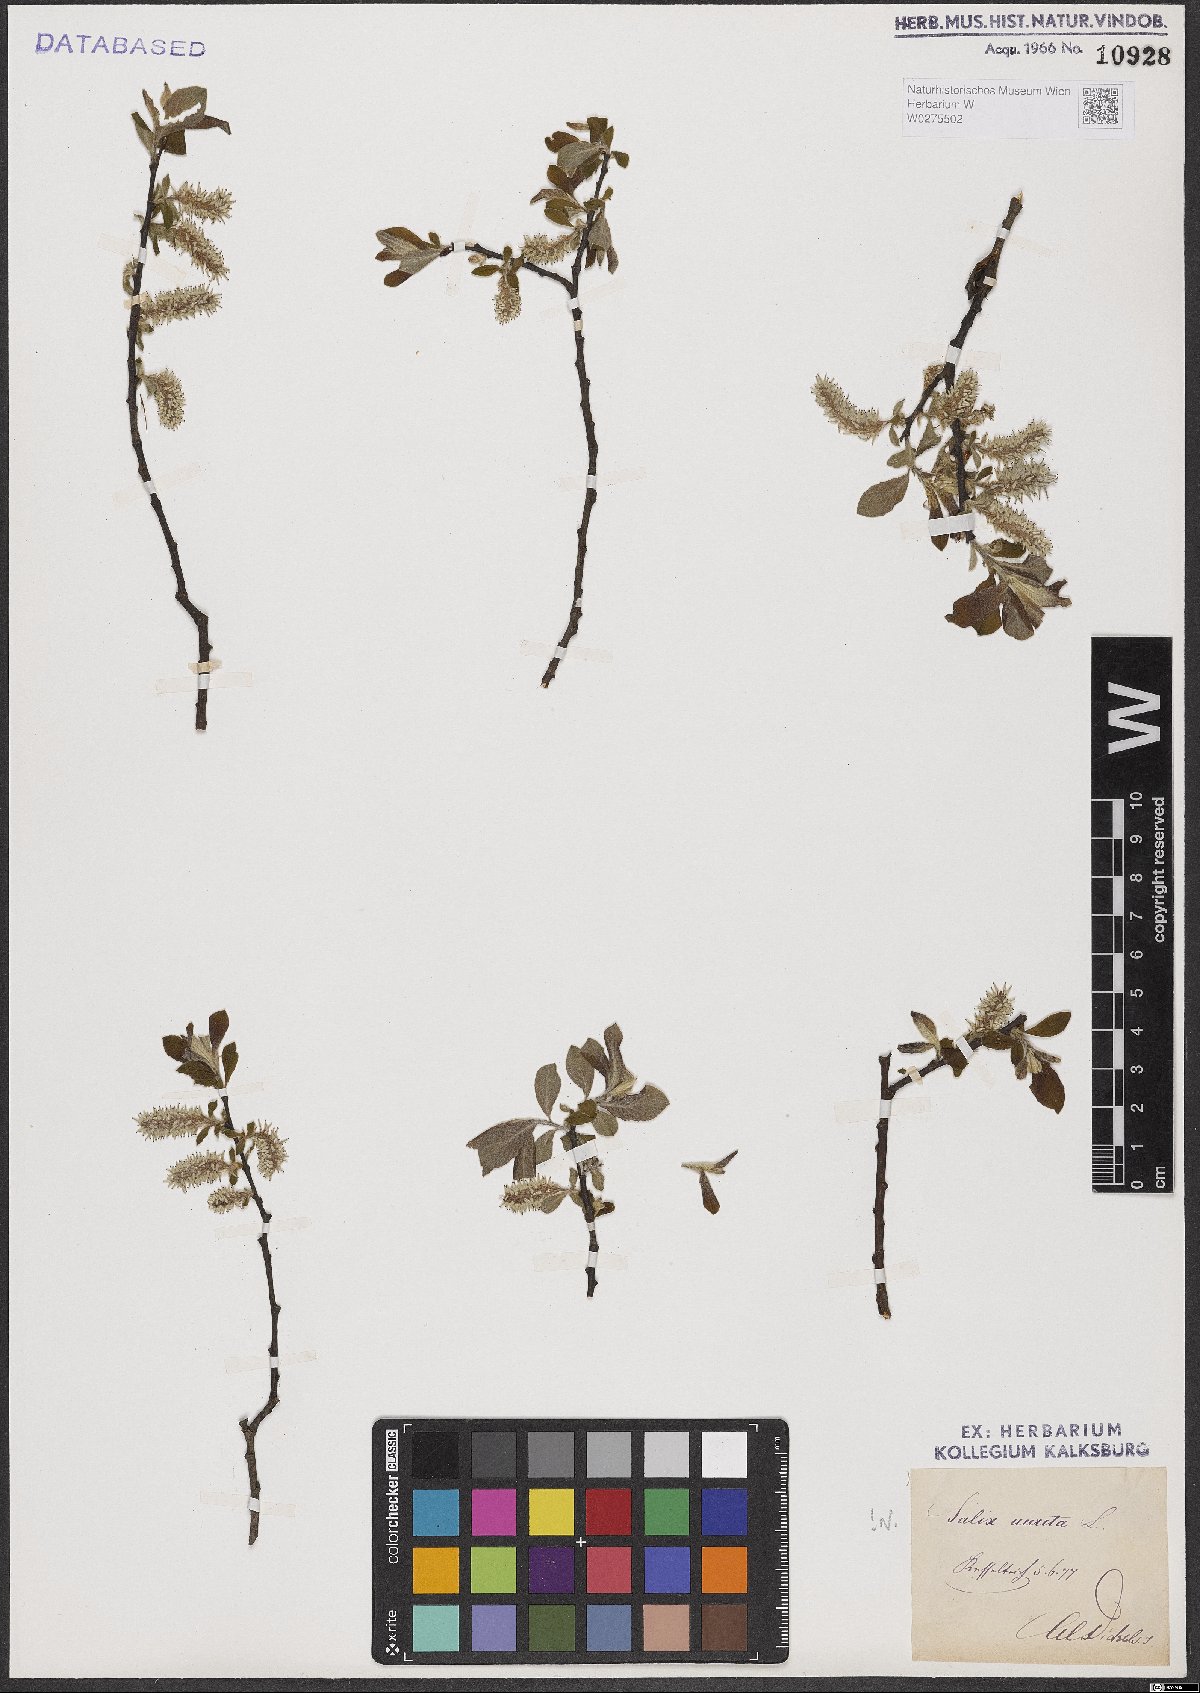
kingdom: Plantae
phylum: Tracheophyta
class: Magnoliopsida
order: Malpighiales
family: Salicaceae
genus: Salix
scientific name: Salix aurita
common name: Eared willow
